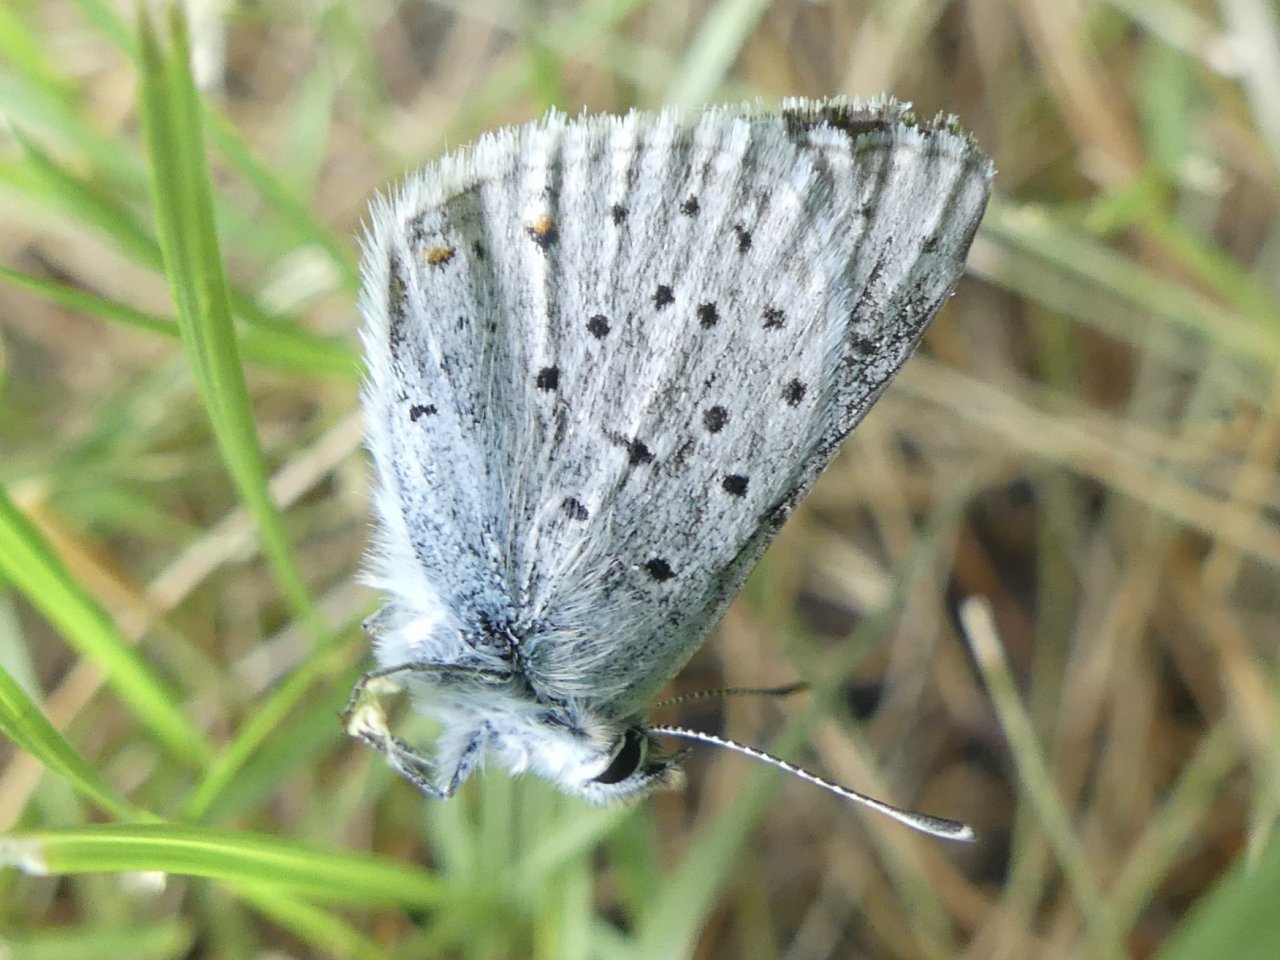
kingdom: Animalia
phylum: Arthropoda
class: Insecta
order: Lepidoptera
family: Lycaenidae
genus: Plebejus
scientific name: Plebejus saepiolus
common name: Greenish Blue
